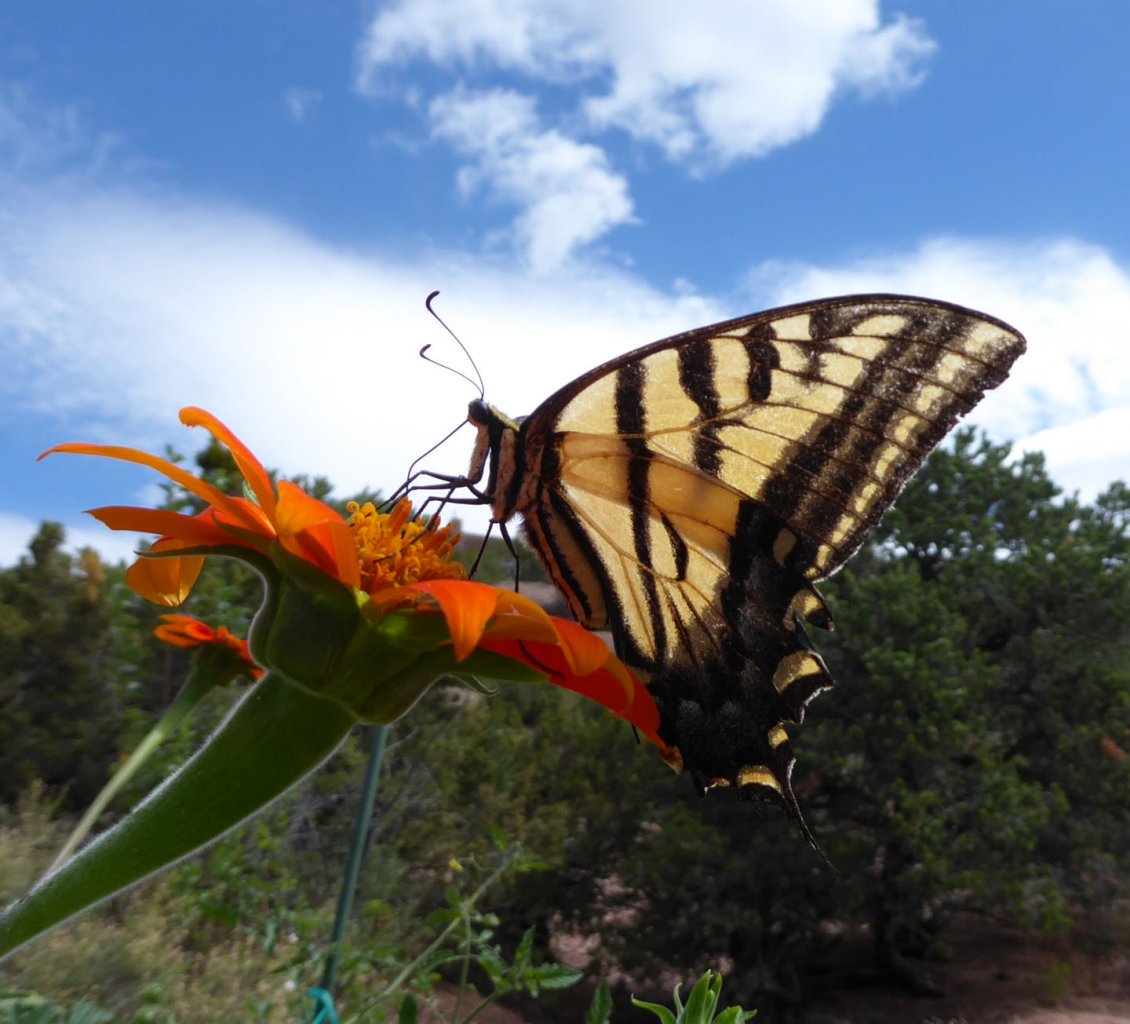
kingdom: Animalia
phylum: Arthropoda
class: Insecta
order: Lepidoptera
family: Papilionidae
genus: Pterourus
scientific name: Pterourus rutulus
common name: Western Tiger Swallowtail
